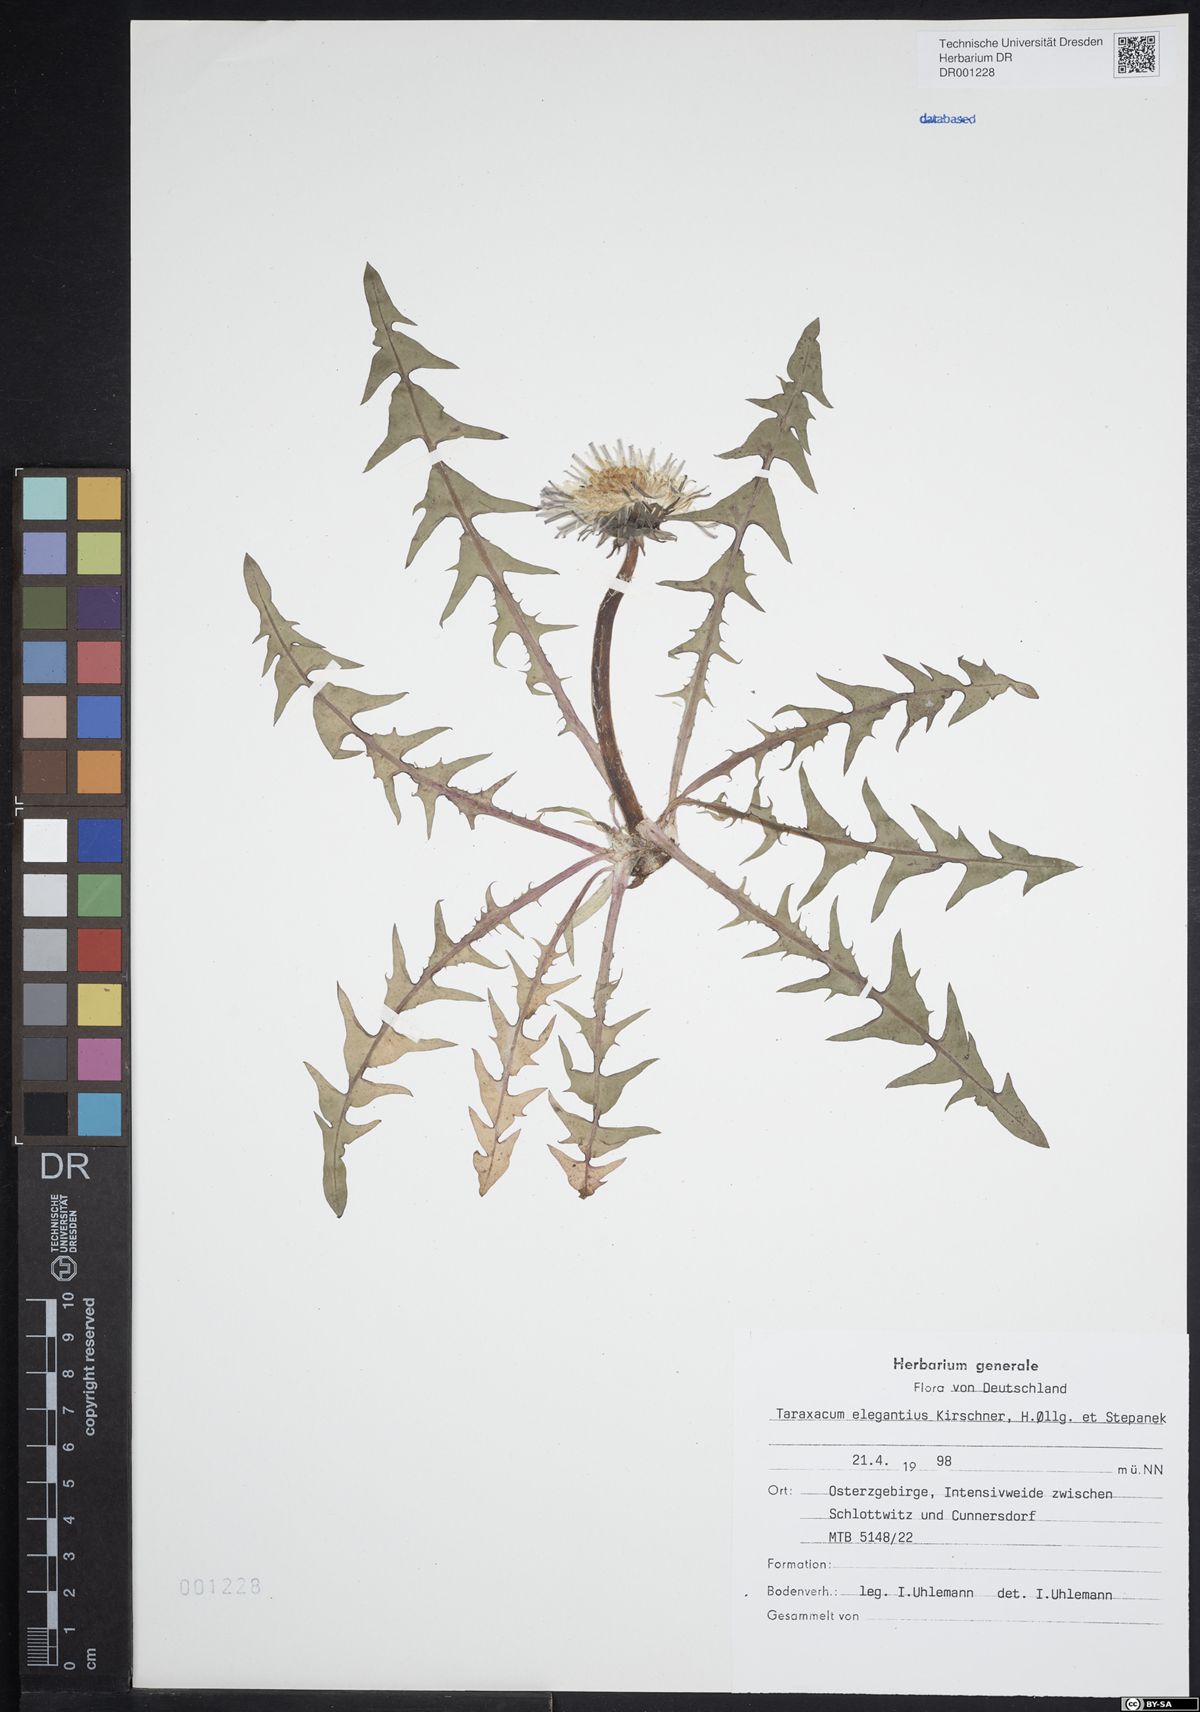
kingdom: Plantae
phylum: Tracheophyta
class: Magnoliopsida
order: Asterales
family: Asteraceae
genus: Taraxacum
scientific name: Taraxacum elegantius
